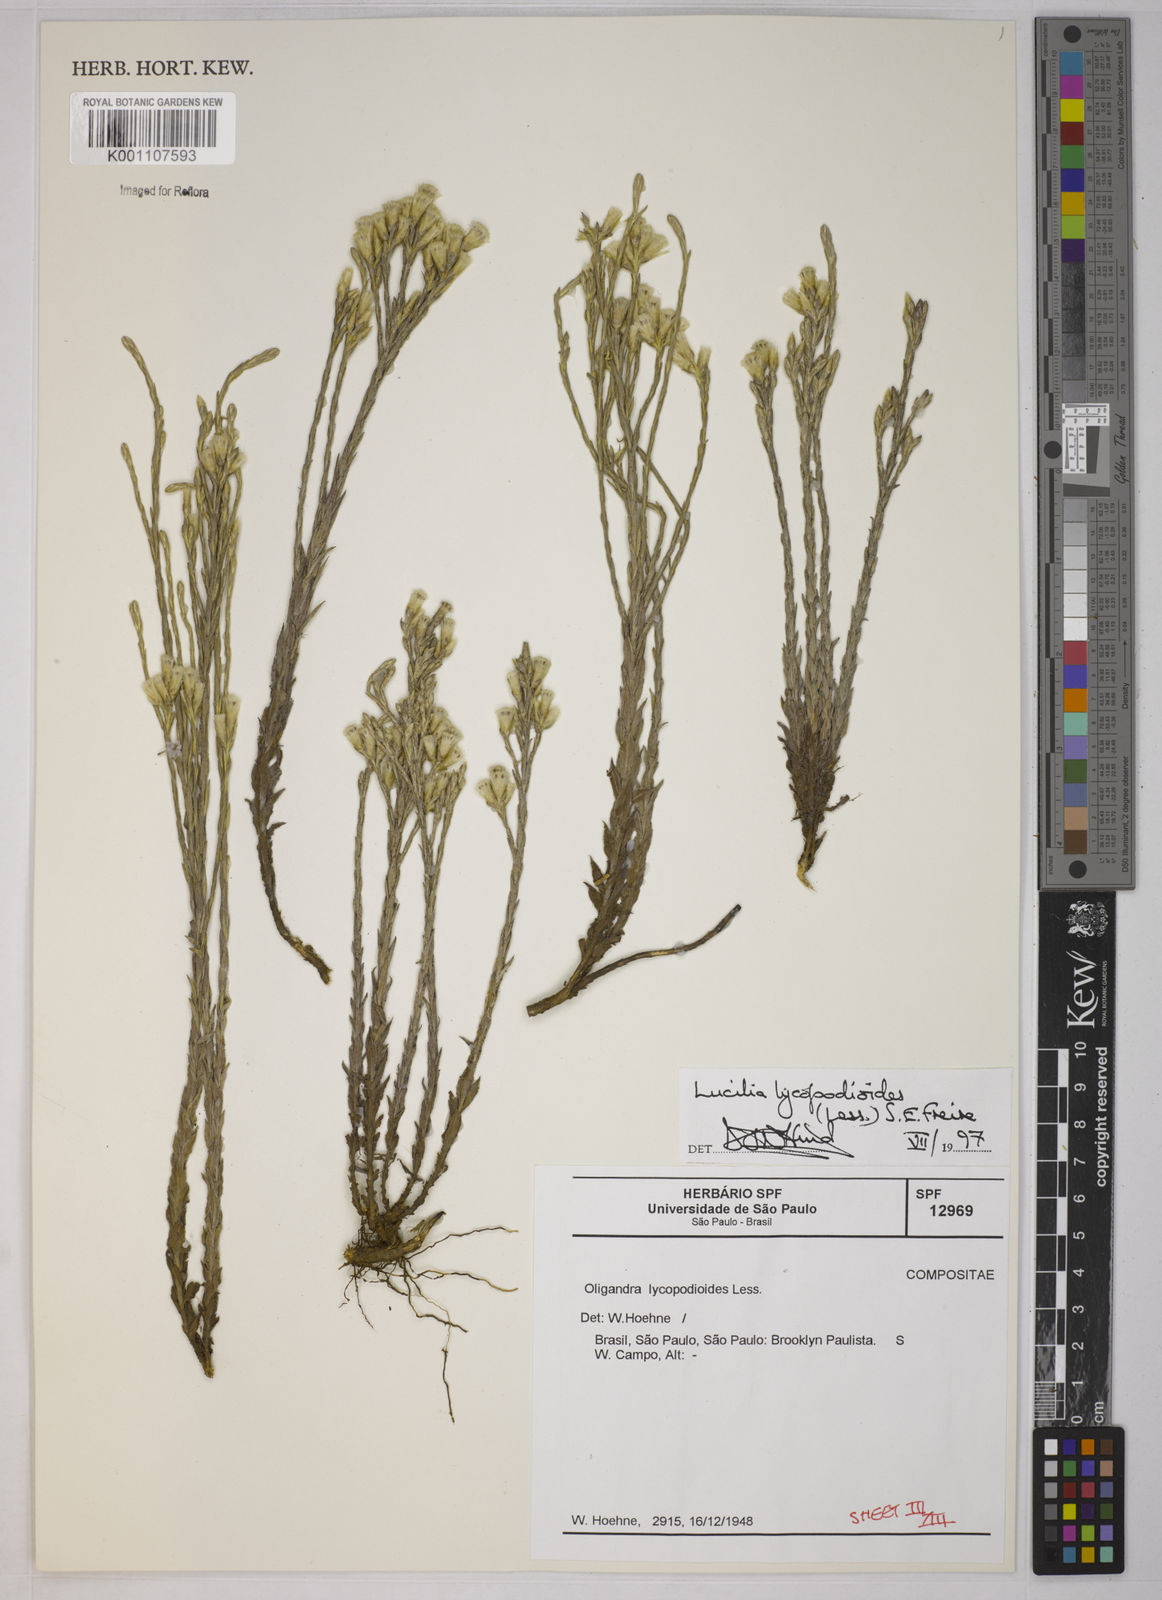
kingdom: Plantae
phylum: Tracheophyta
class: Magnoliopsida
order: Asterales
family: Asteraceae
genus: Lucilia
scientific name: Lucilia lycopodioides
